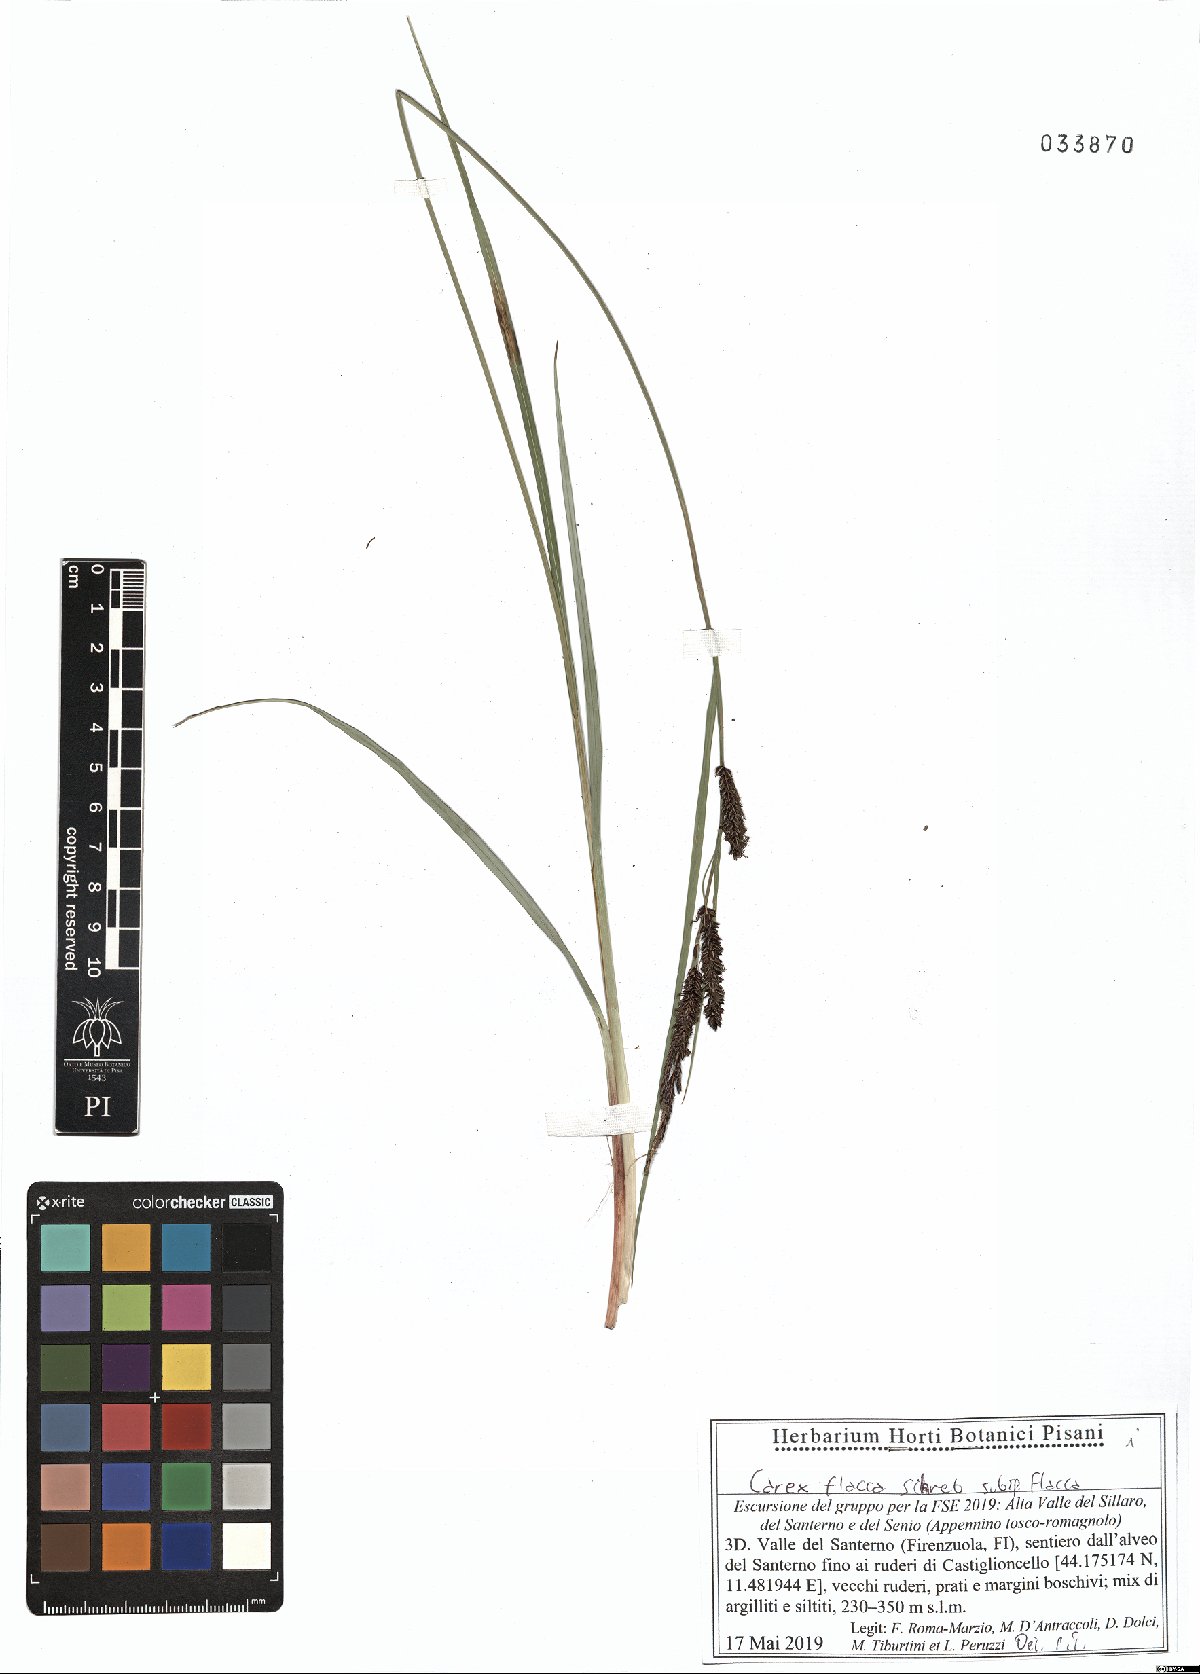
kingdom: Plantae
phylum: Tracheophyta
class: Liliopsida
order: Poales
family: Cyperaceae
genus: Carex
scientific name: Carex flacca
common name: Glaucous sedge
